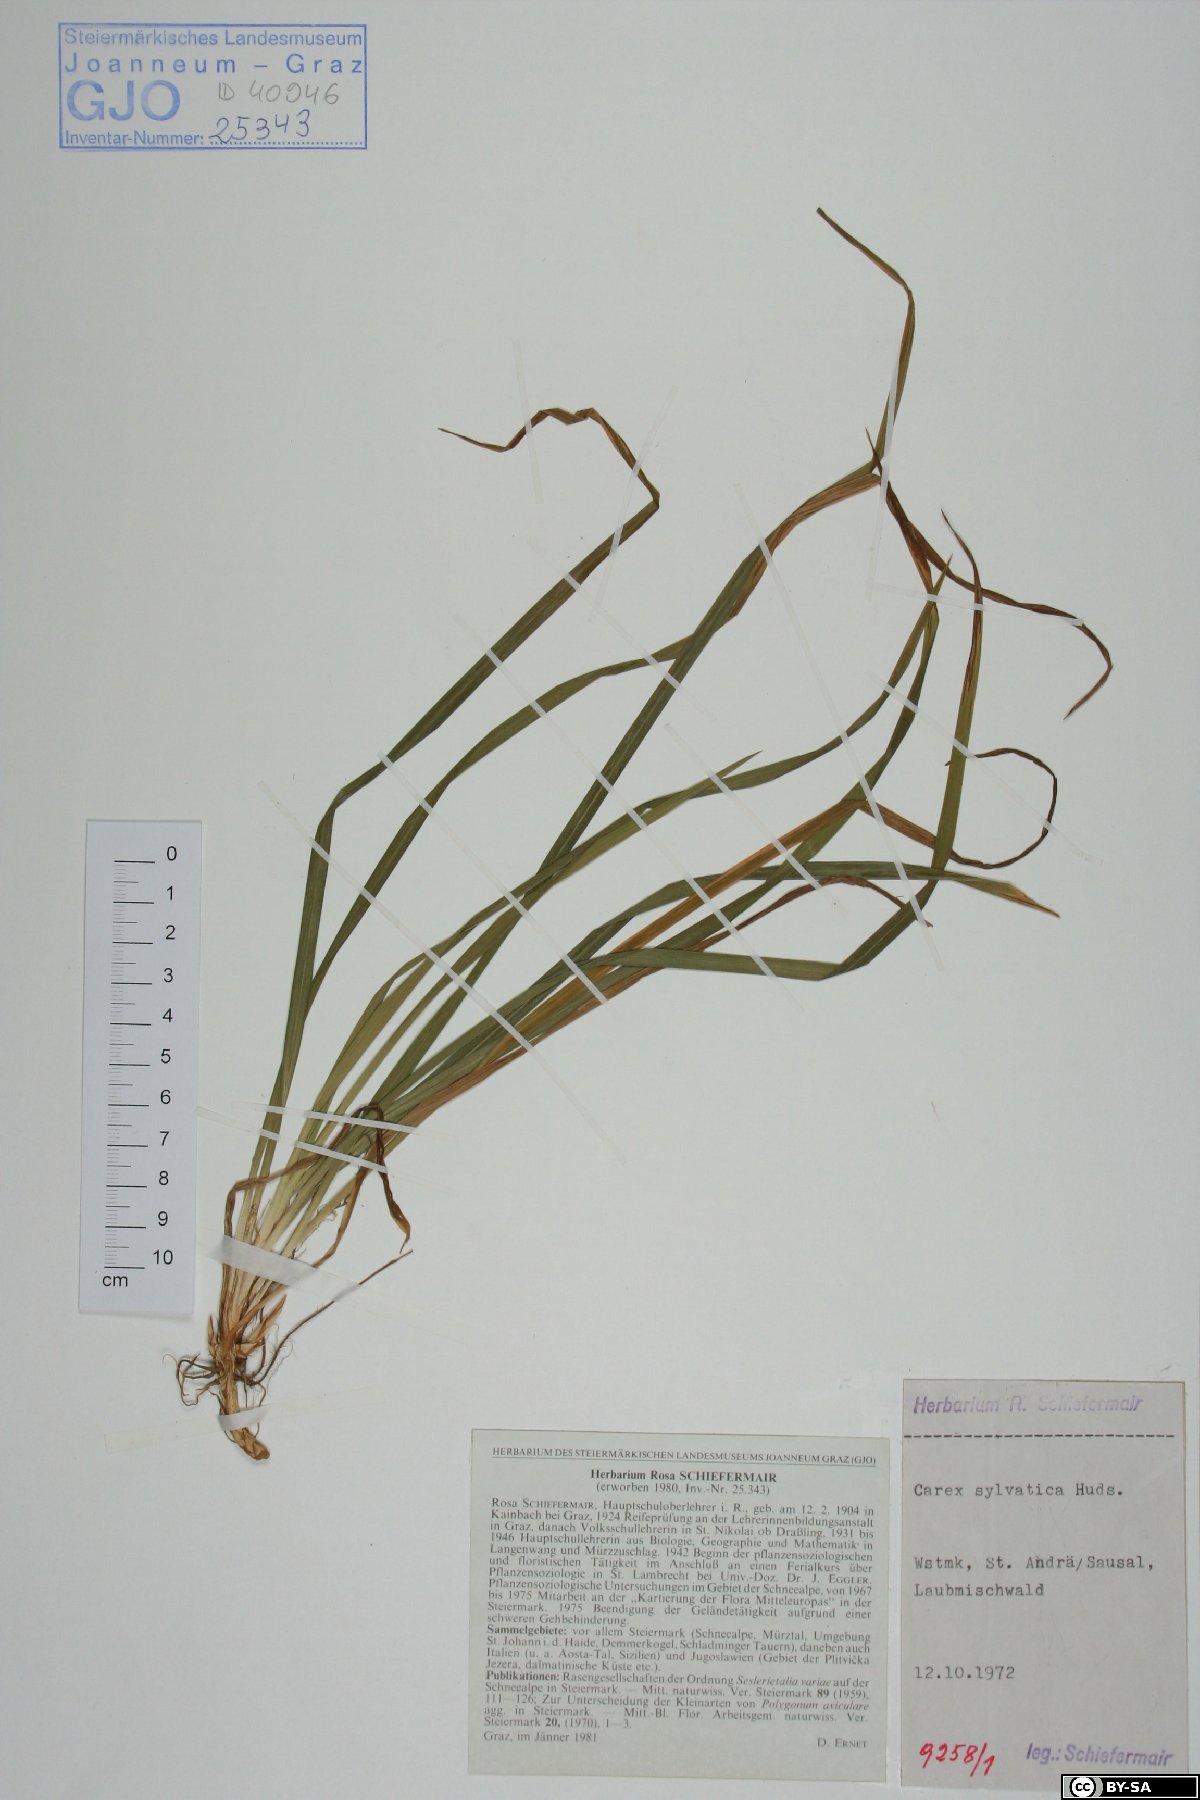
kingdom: Plantae
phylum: Tracheophyta
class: Liliopsida
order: Poales
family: Cyperaceae
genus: Carex
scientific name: Carex sylvatica
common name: Wood-sedge
